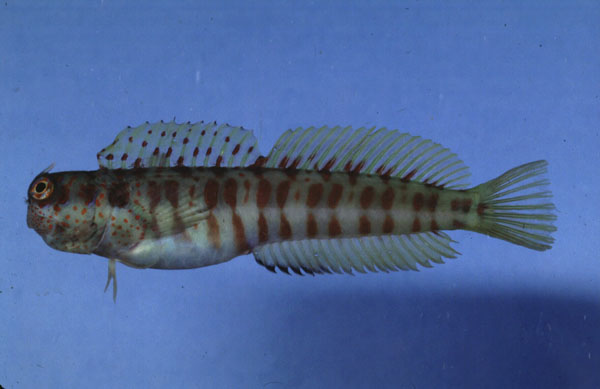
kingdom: Animalia
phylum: Chordata
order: Perciformes
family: Blenniidae
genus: Blenniella
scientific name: Blenniella gibbifrons
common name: Picture rockskipper
